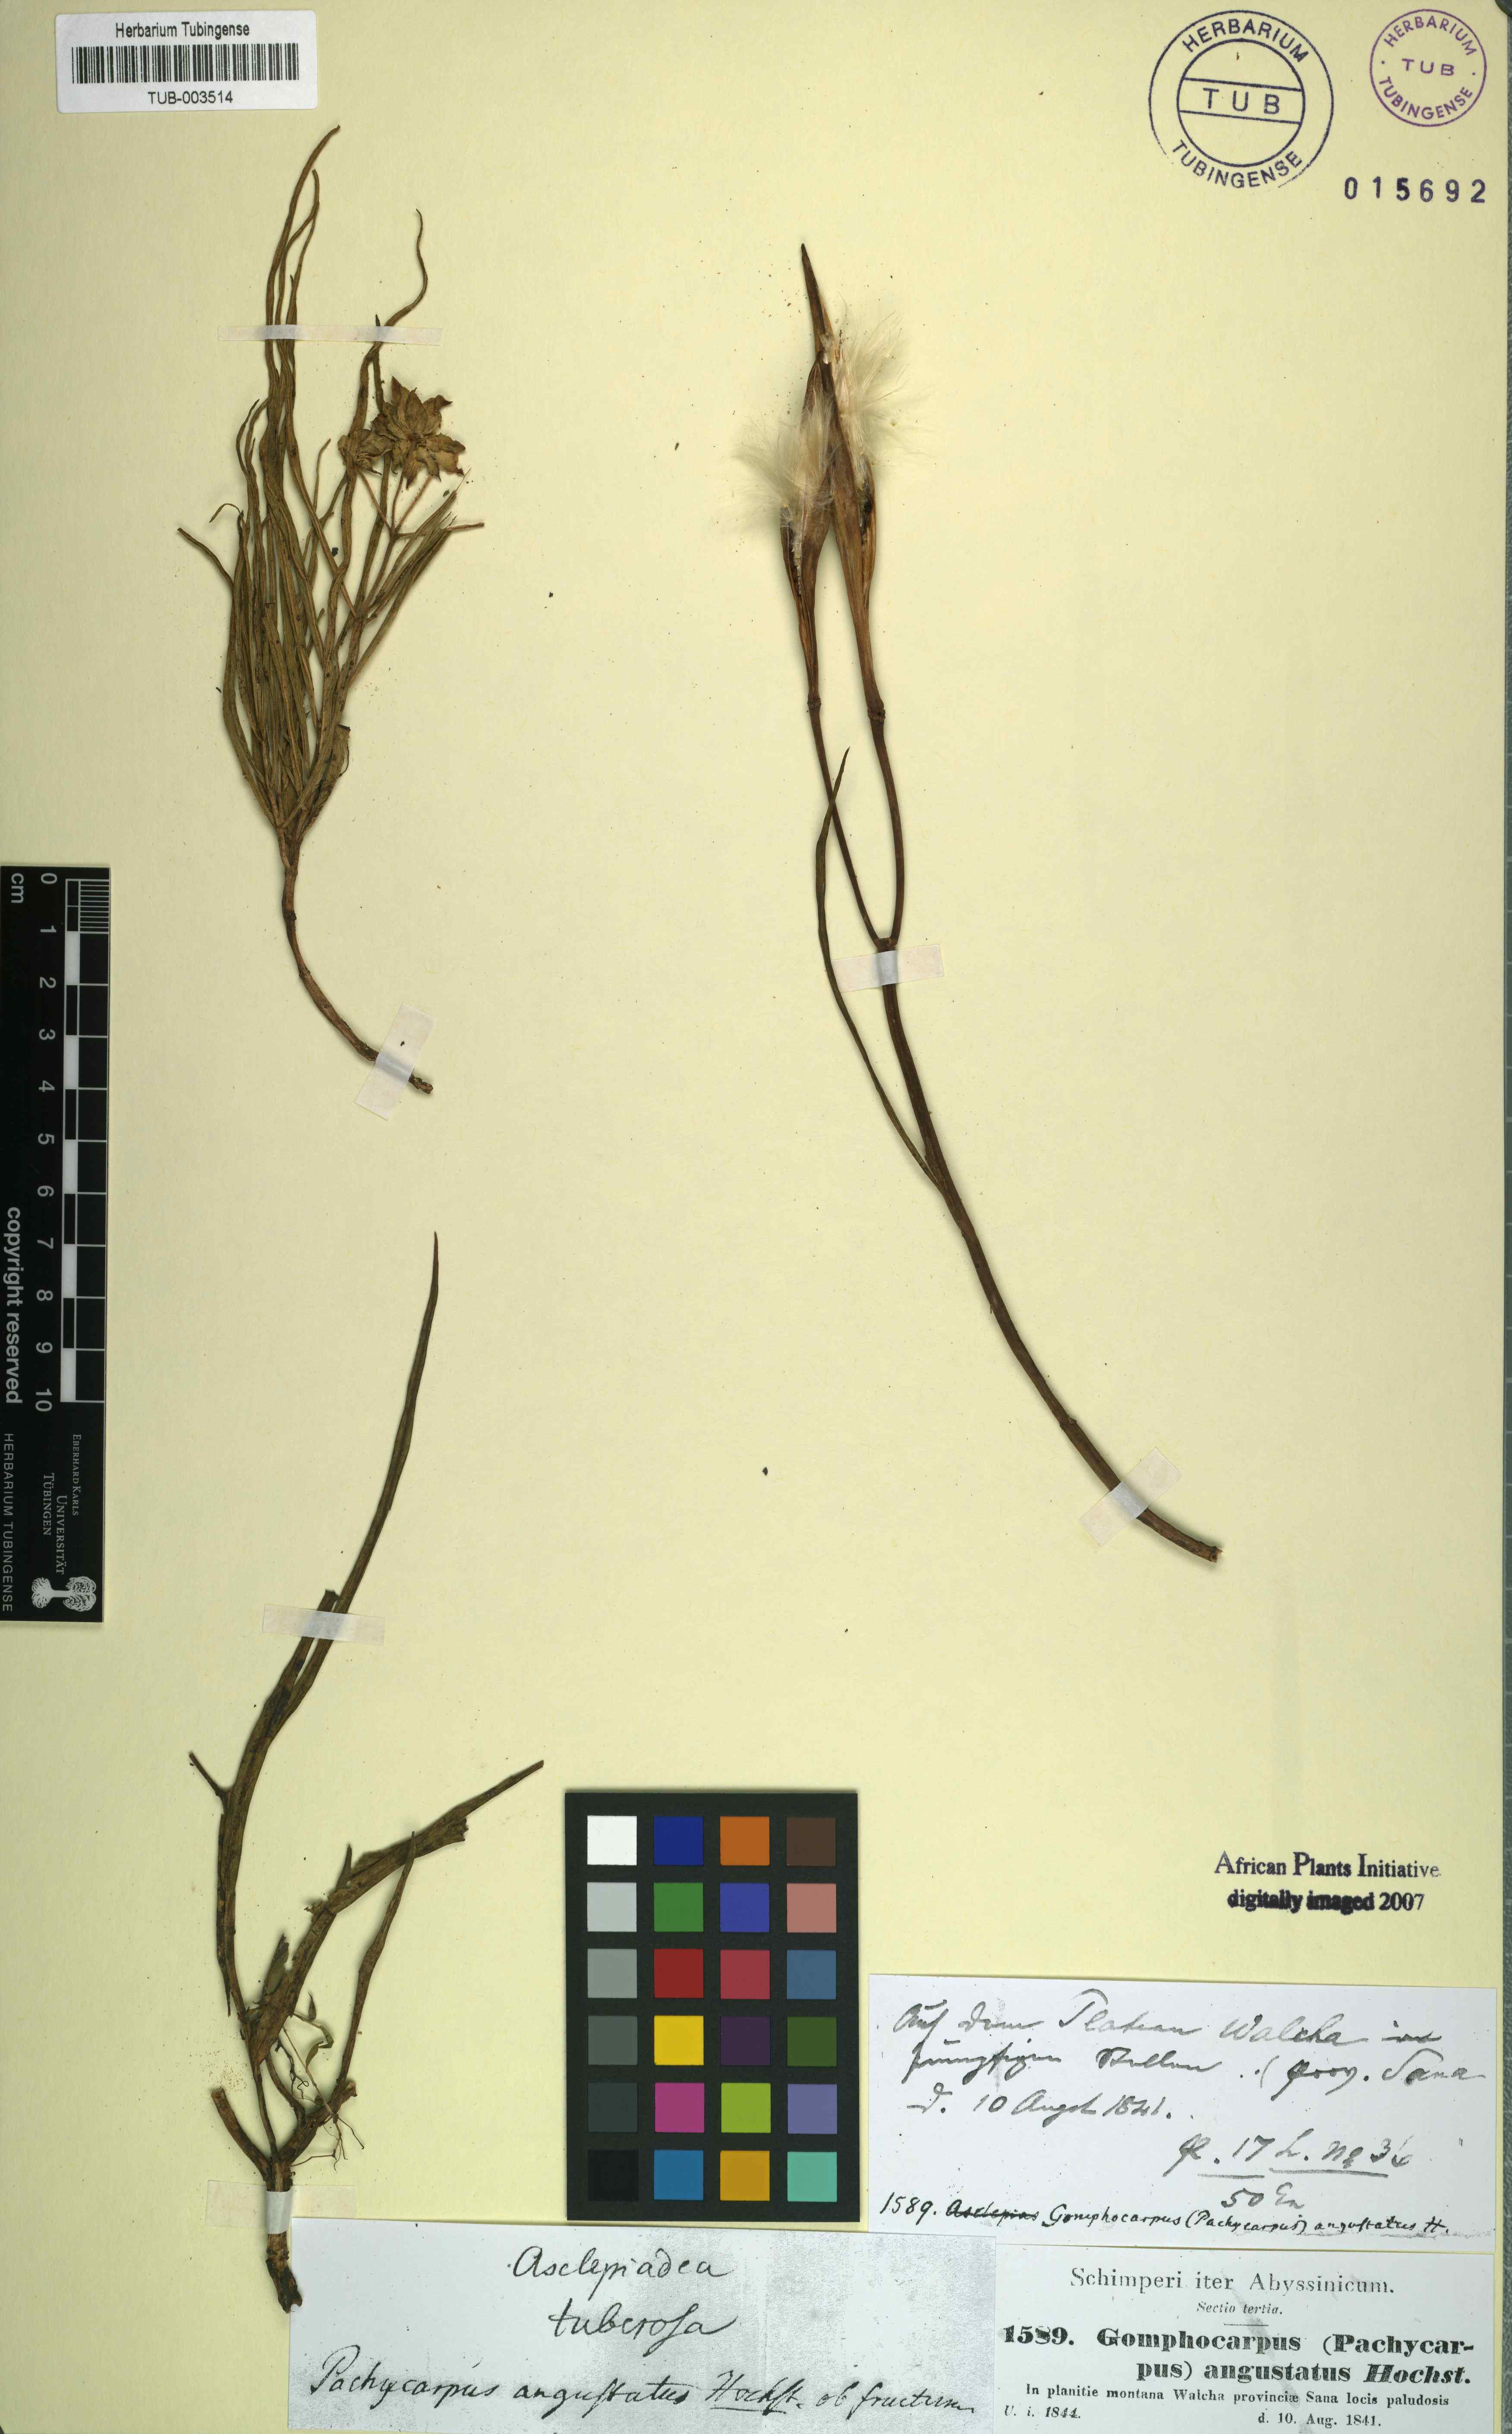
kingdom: Plantae
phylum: Tracheophyta
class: Magnoliopsida
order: Gentianales
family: Apocynaceae
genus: Stathmostelma
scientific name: Stathmostelma angustatum
